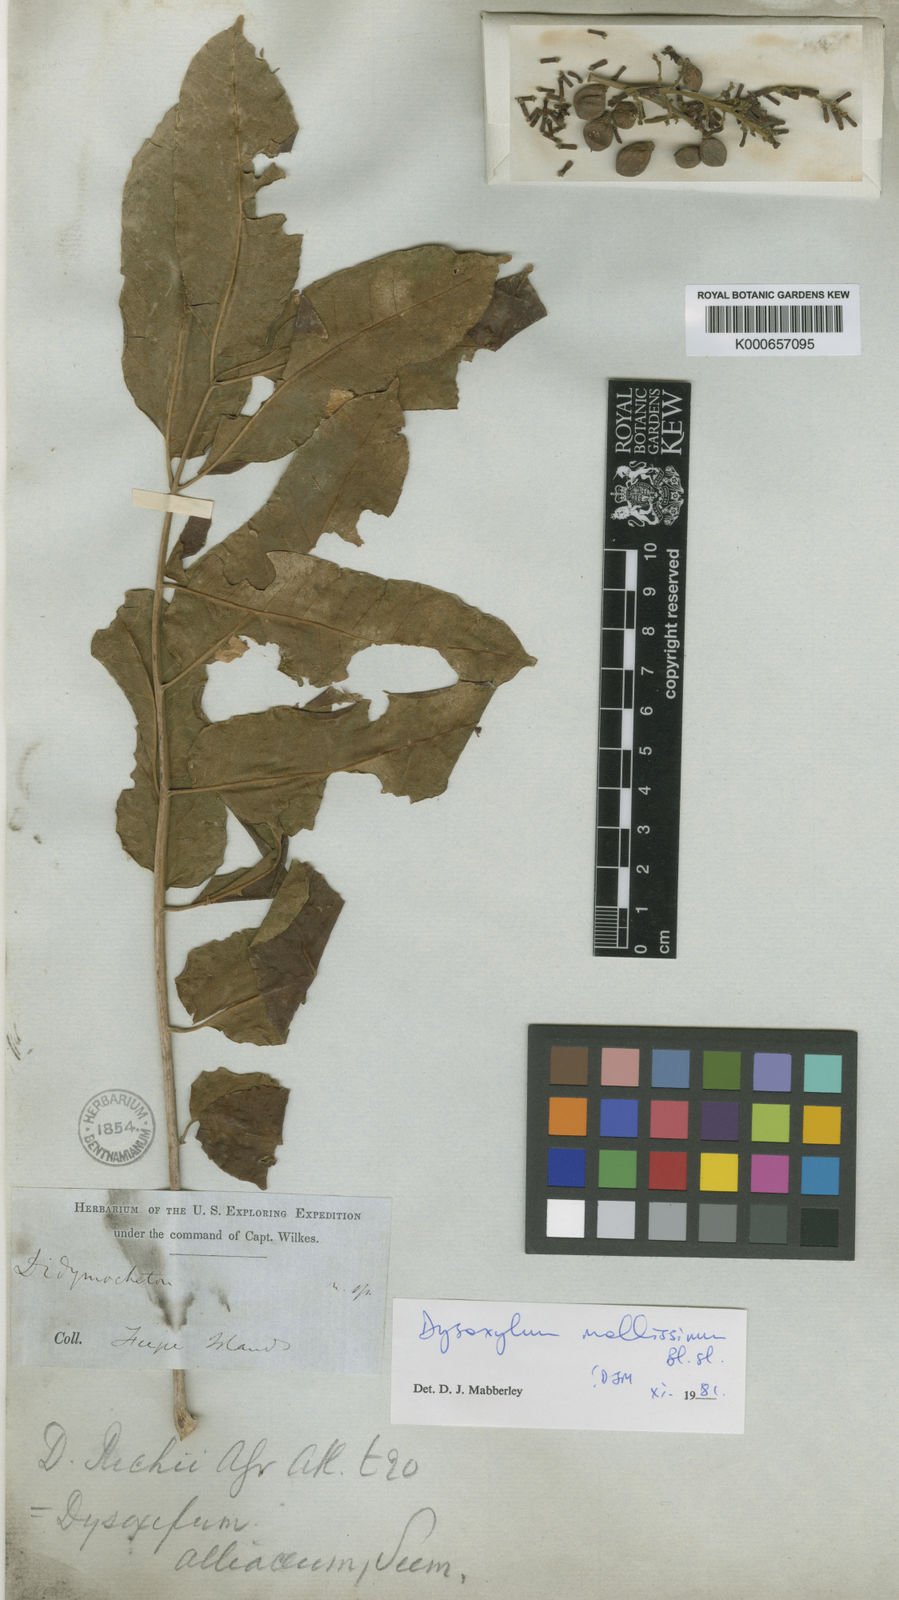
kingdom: Plantae
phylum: Tracheophyta
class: Magnoliopsida
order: Sapindales
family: Meliaceae
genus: Dysoxylum
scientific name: Dysoxylum mollissimum
